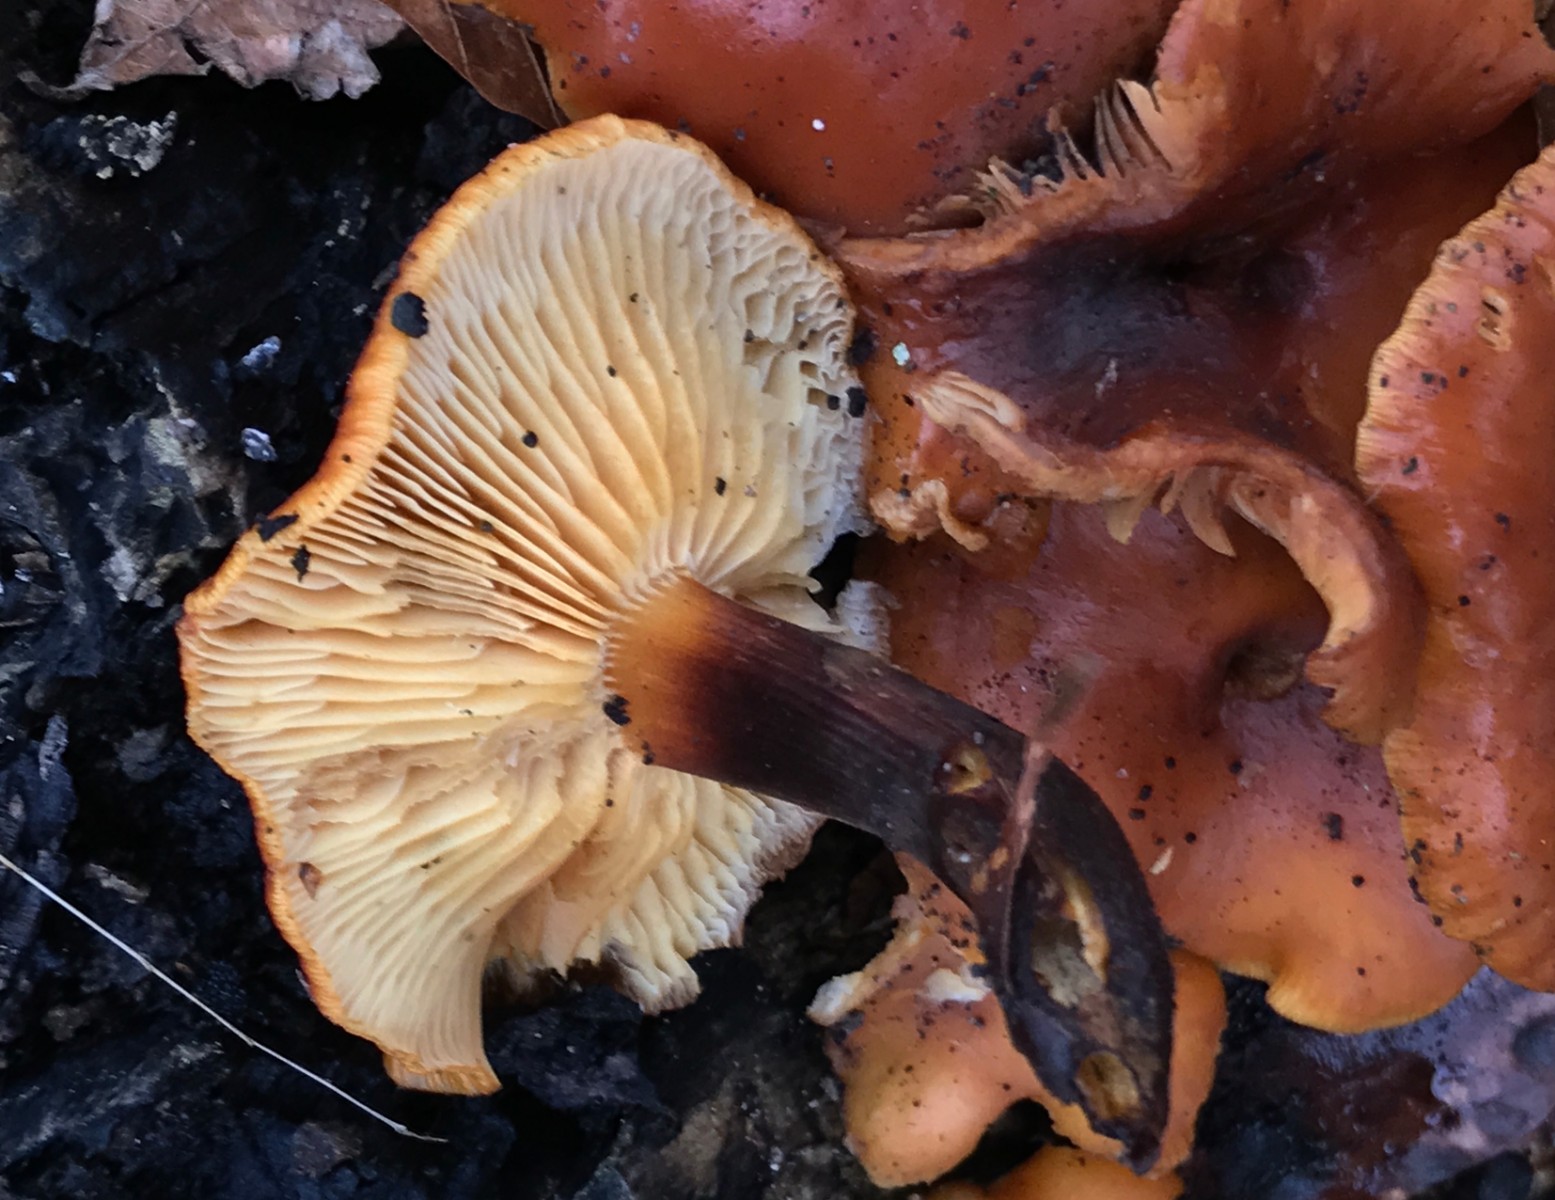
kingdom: Fungi
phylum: Basidiomycota
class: Agaricomycetes
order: Agaricales
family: Physalacriaceae
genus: Flammulina
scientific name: Flammulina velutipes
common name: gul fløjlsfod
